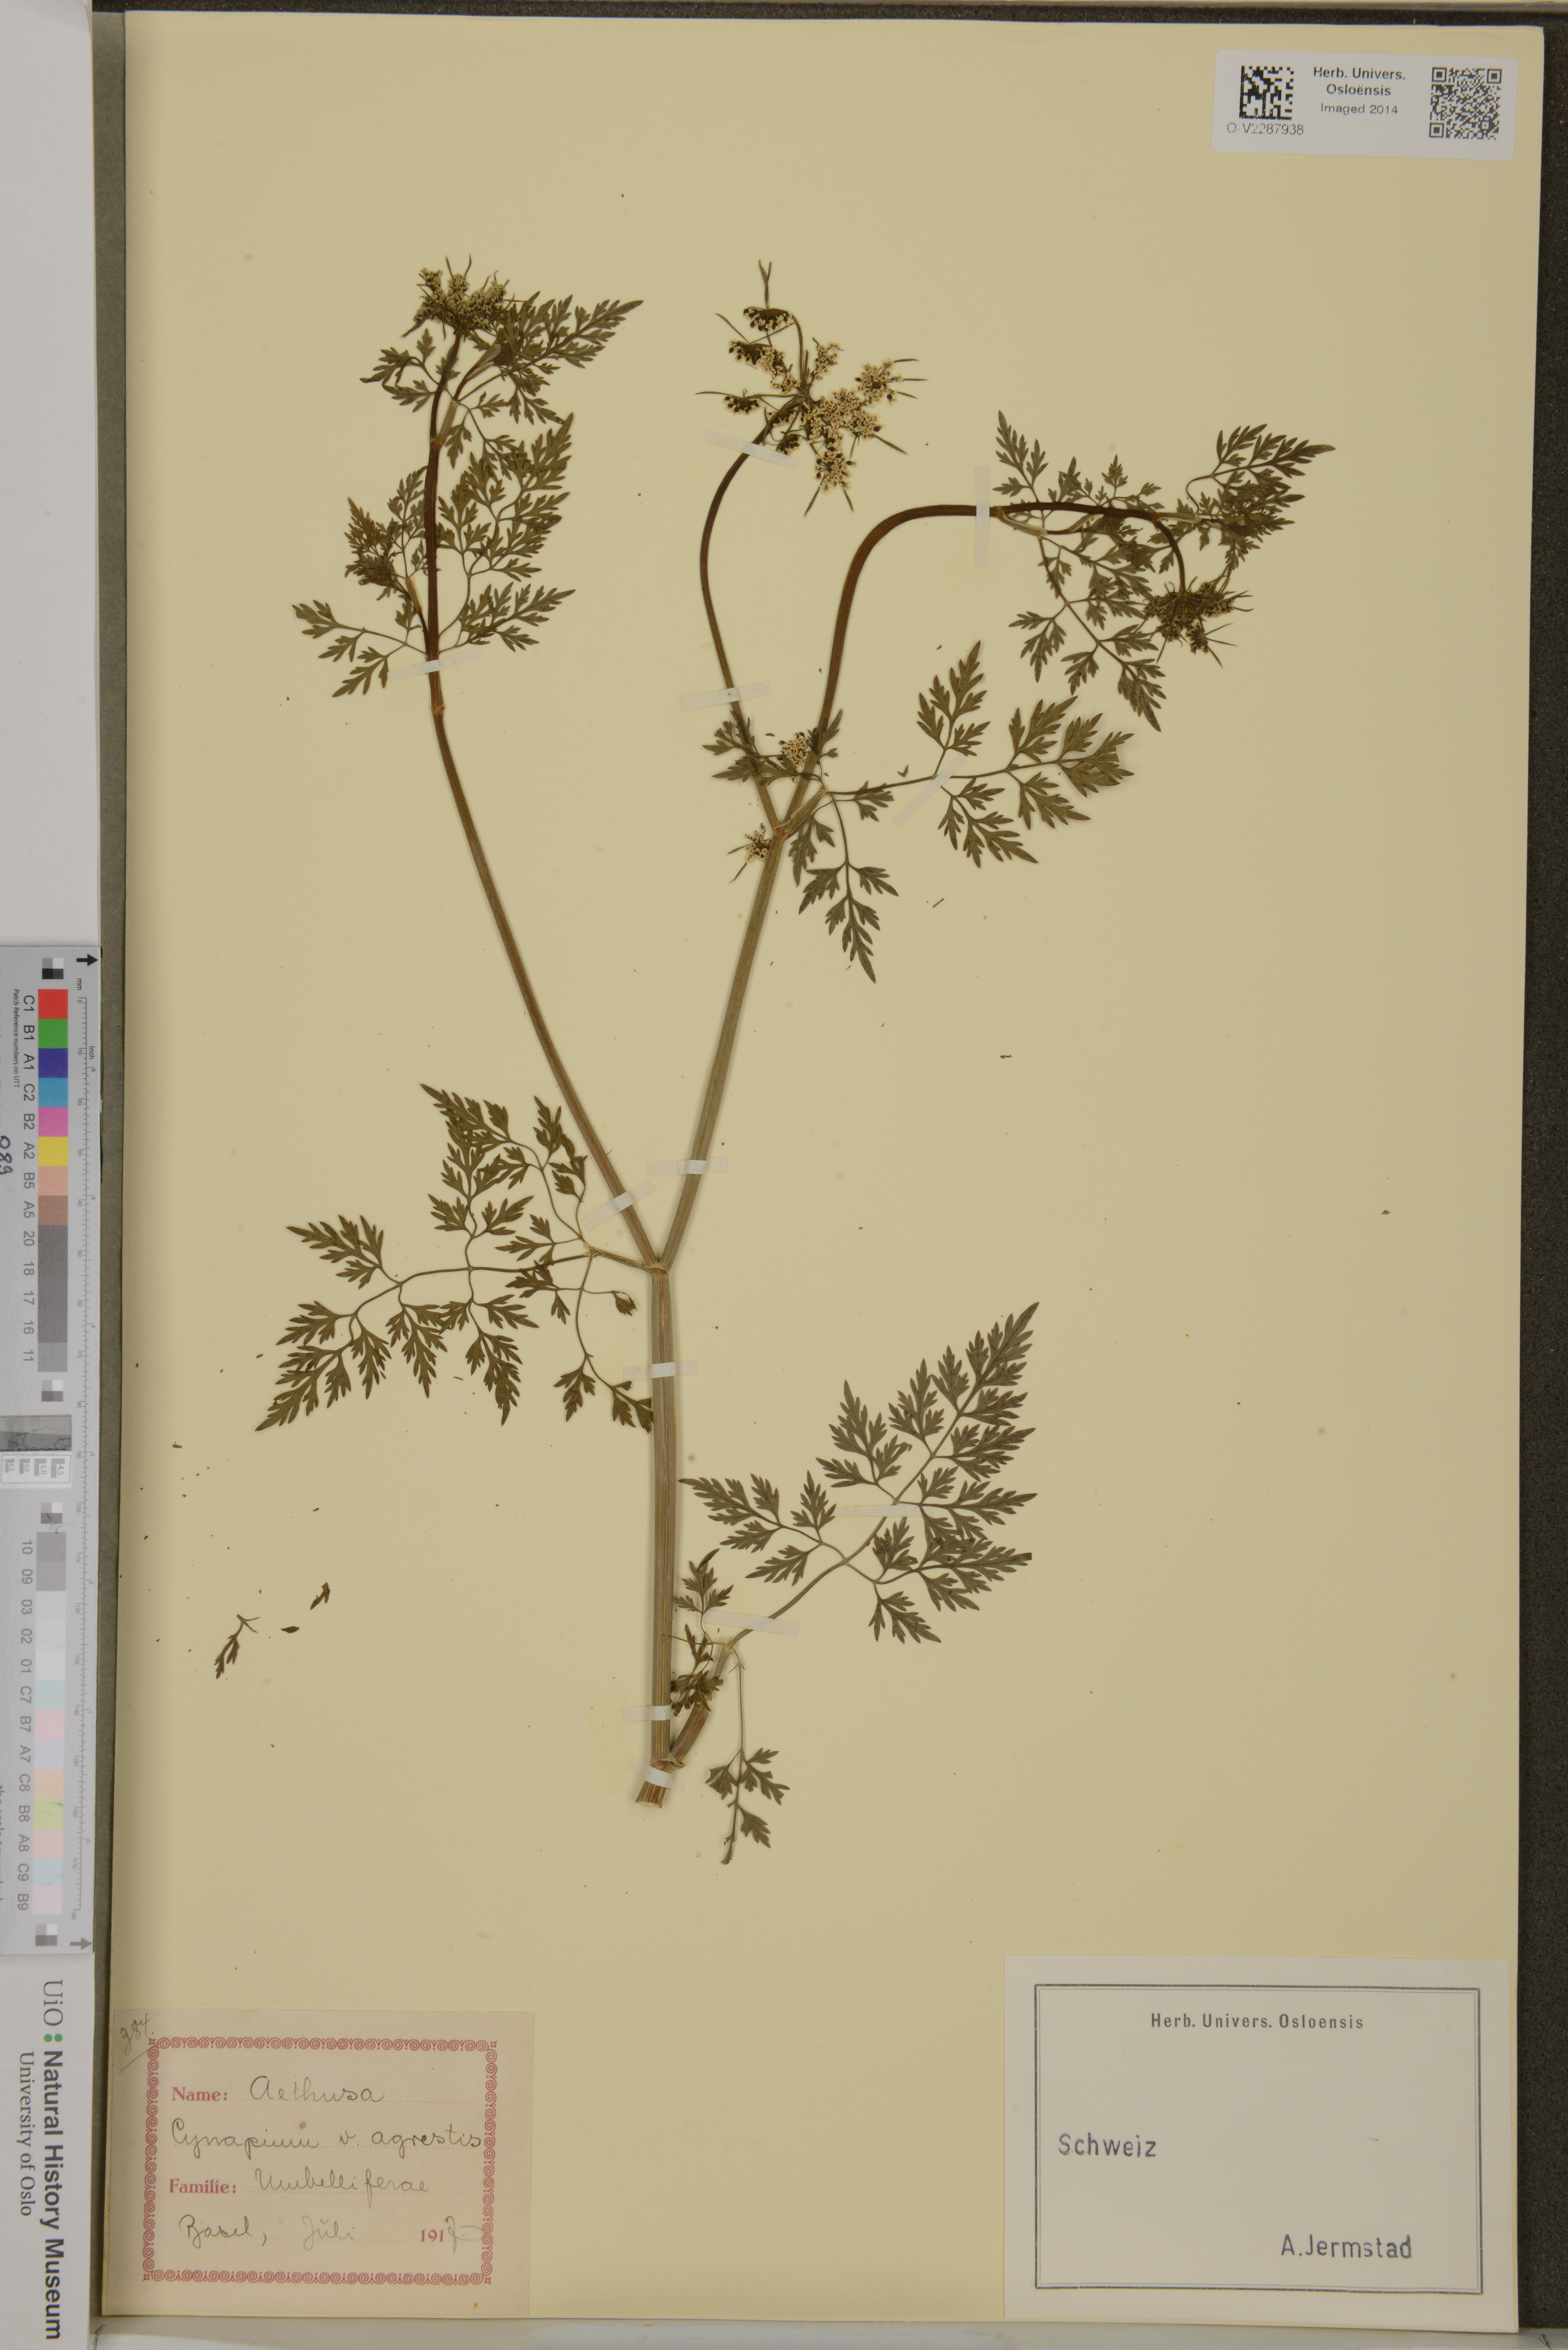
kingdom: Plantae
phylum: Tracheophyta
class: Magnoliopsida
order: Apiales
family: Apiaceae
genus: Aethusa
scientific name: Aethusa cynapium
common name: Fool's parsley
